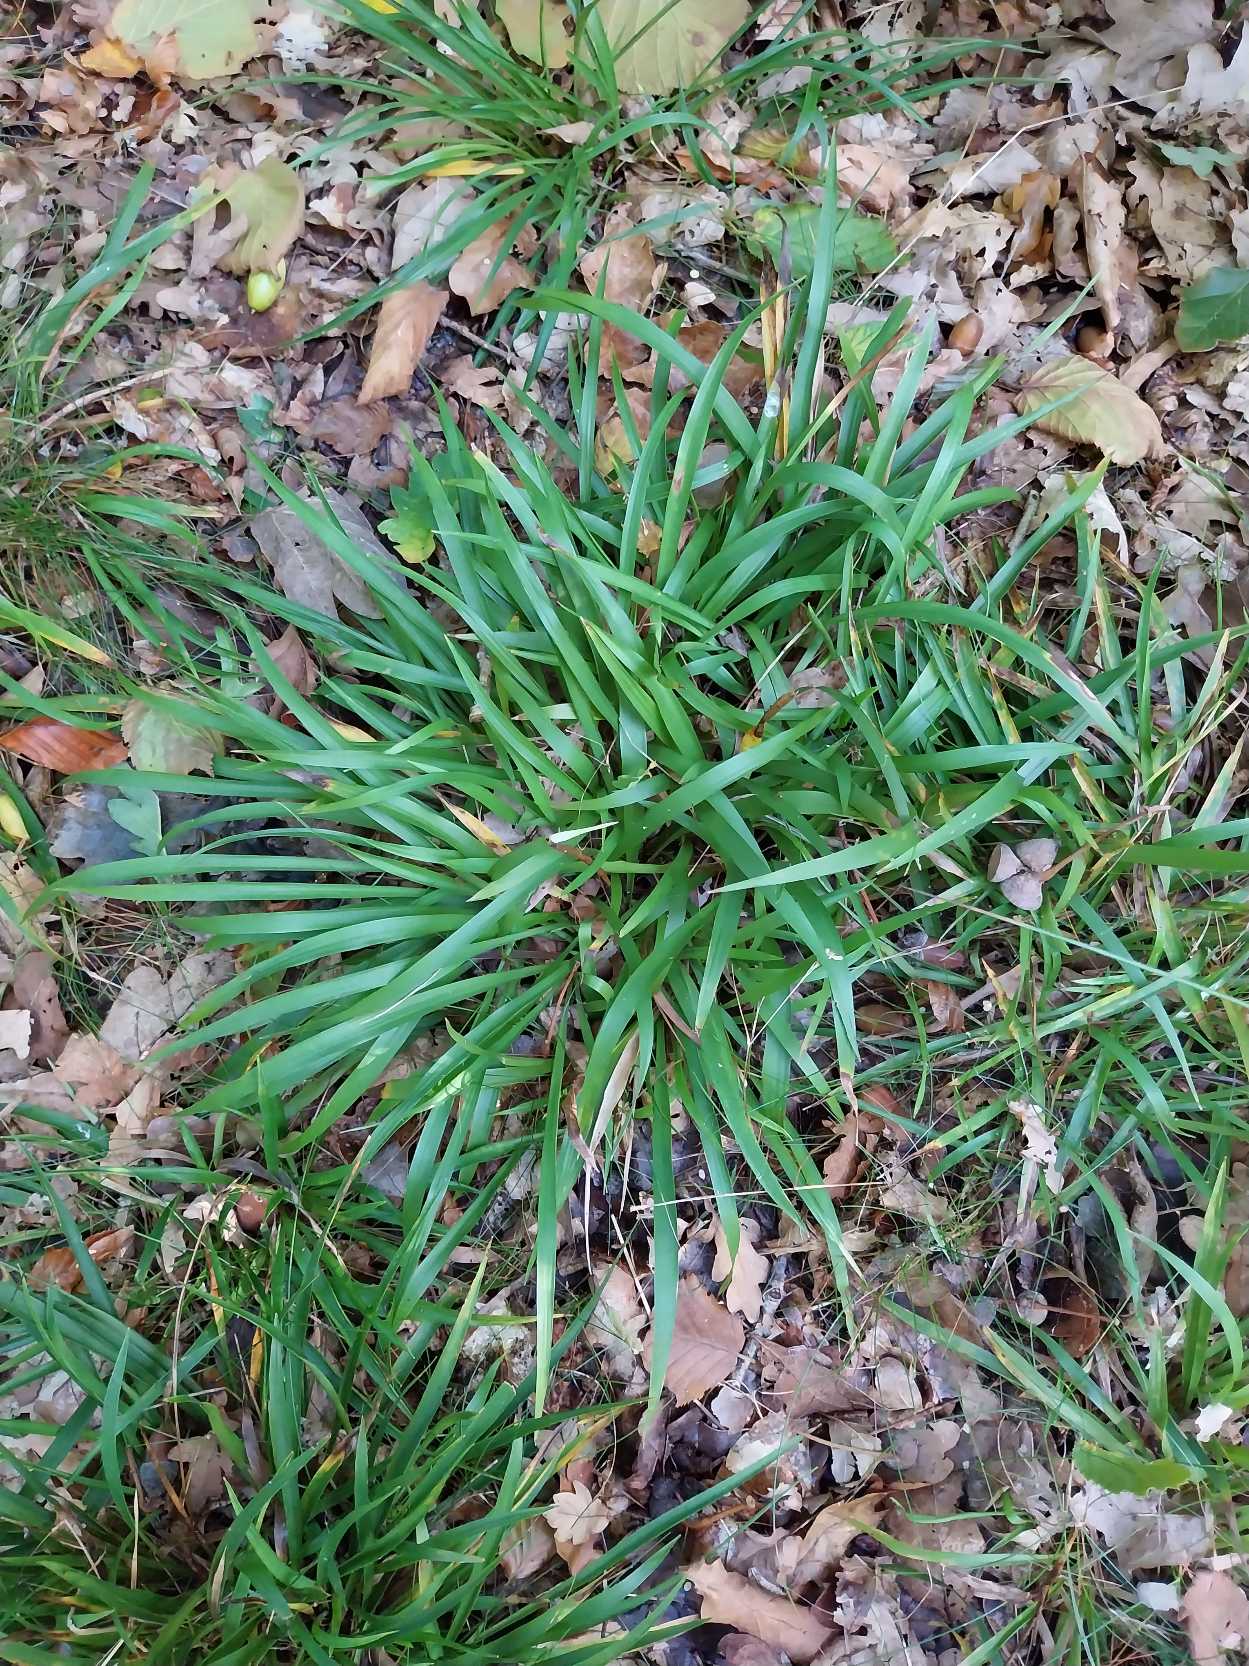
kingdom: Plantae
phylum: Tracheophyta
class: Liliopsida
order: Poales
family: Juncaceae
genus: Luzula
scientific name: Luzula pilosa
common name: Håret frytle
